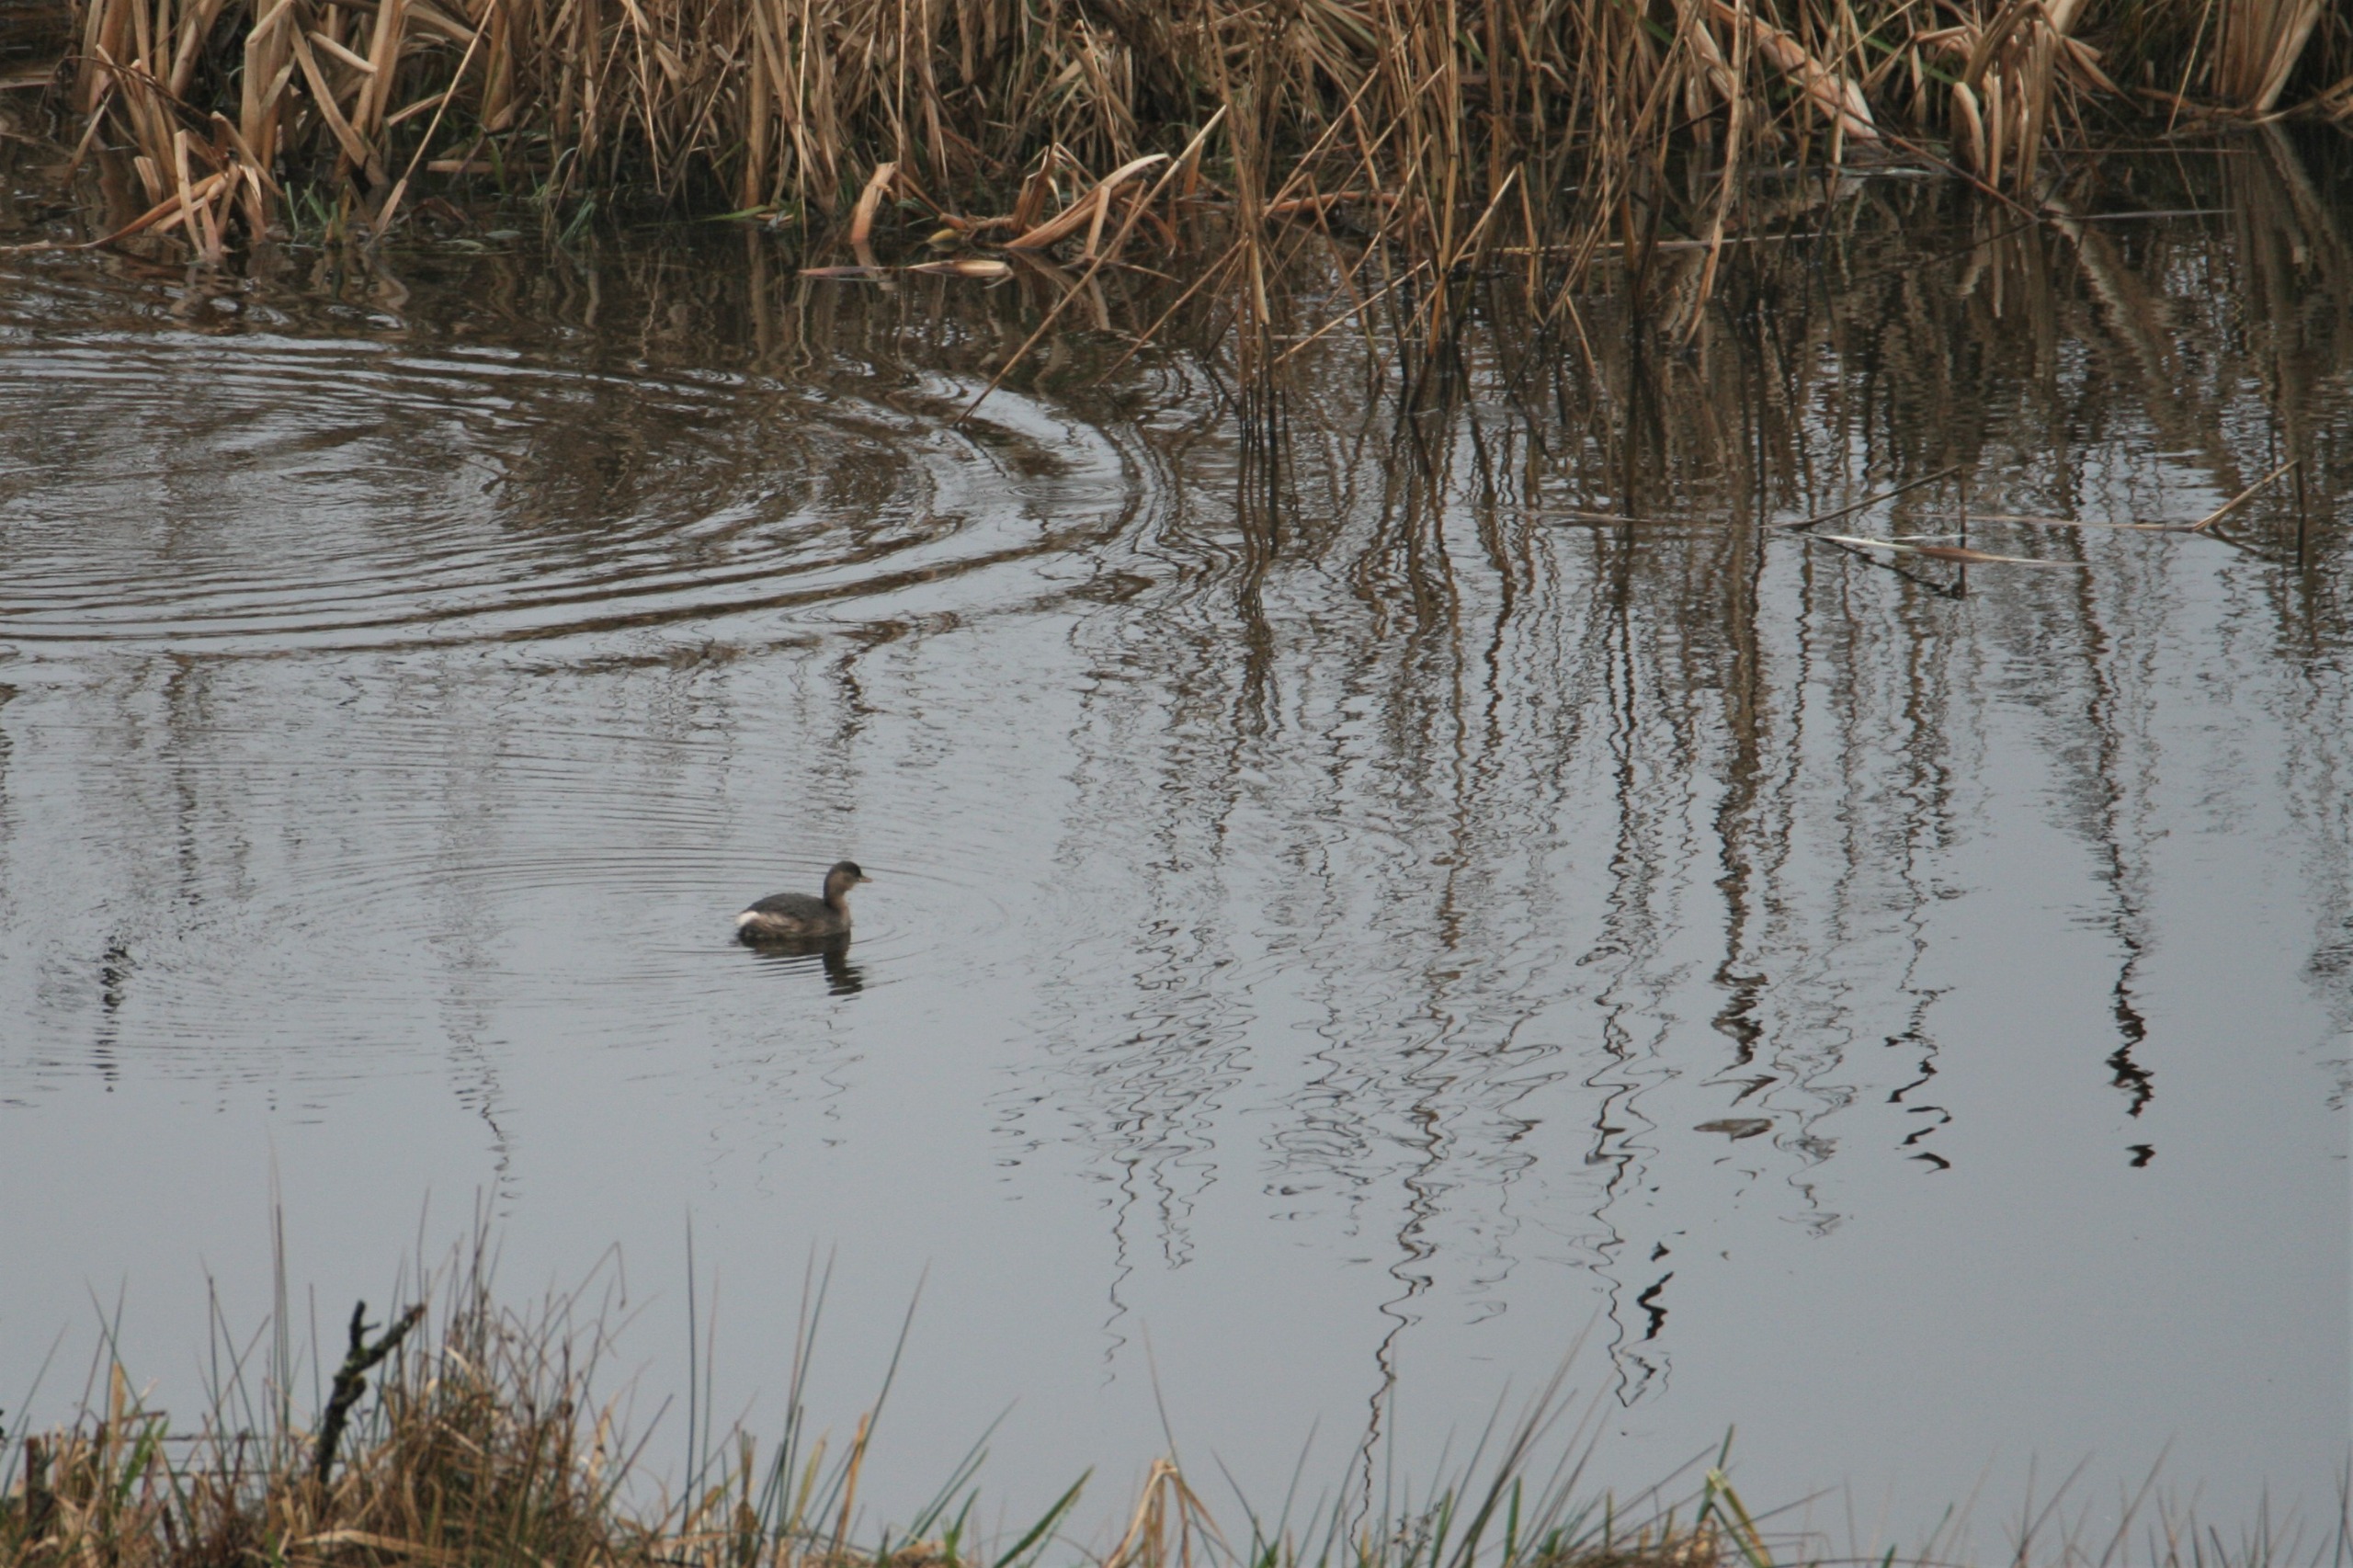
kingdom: Animalia
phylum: Chordata
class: Aves
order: Podicipediformes
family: Podicipedidae
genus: Tachybaptus
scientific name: Tachybaptus ruficollis
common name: Lille lappedykker
